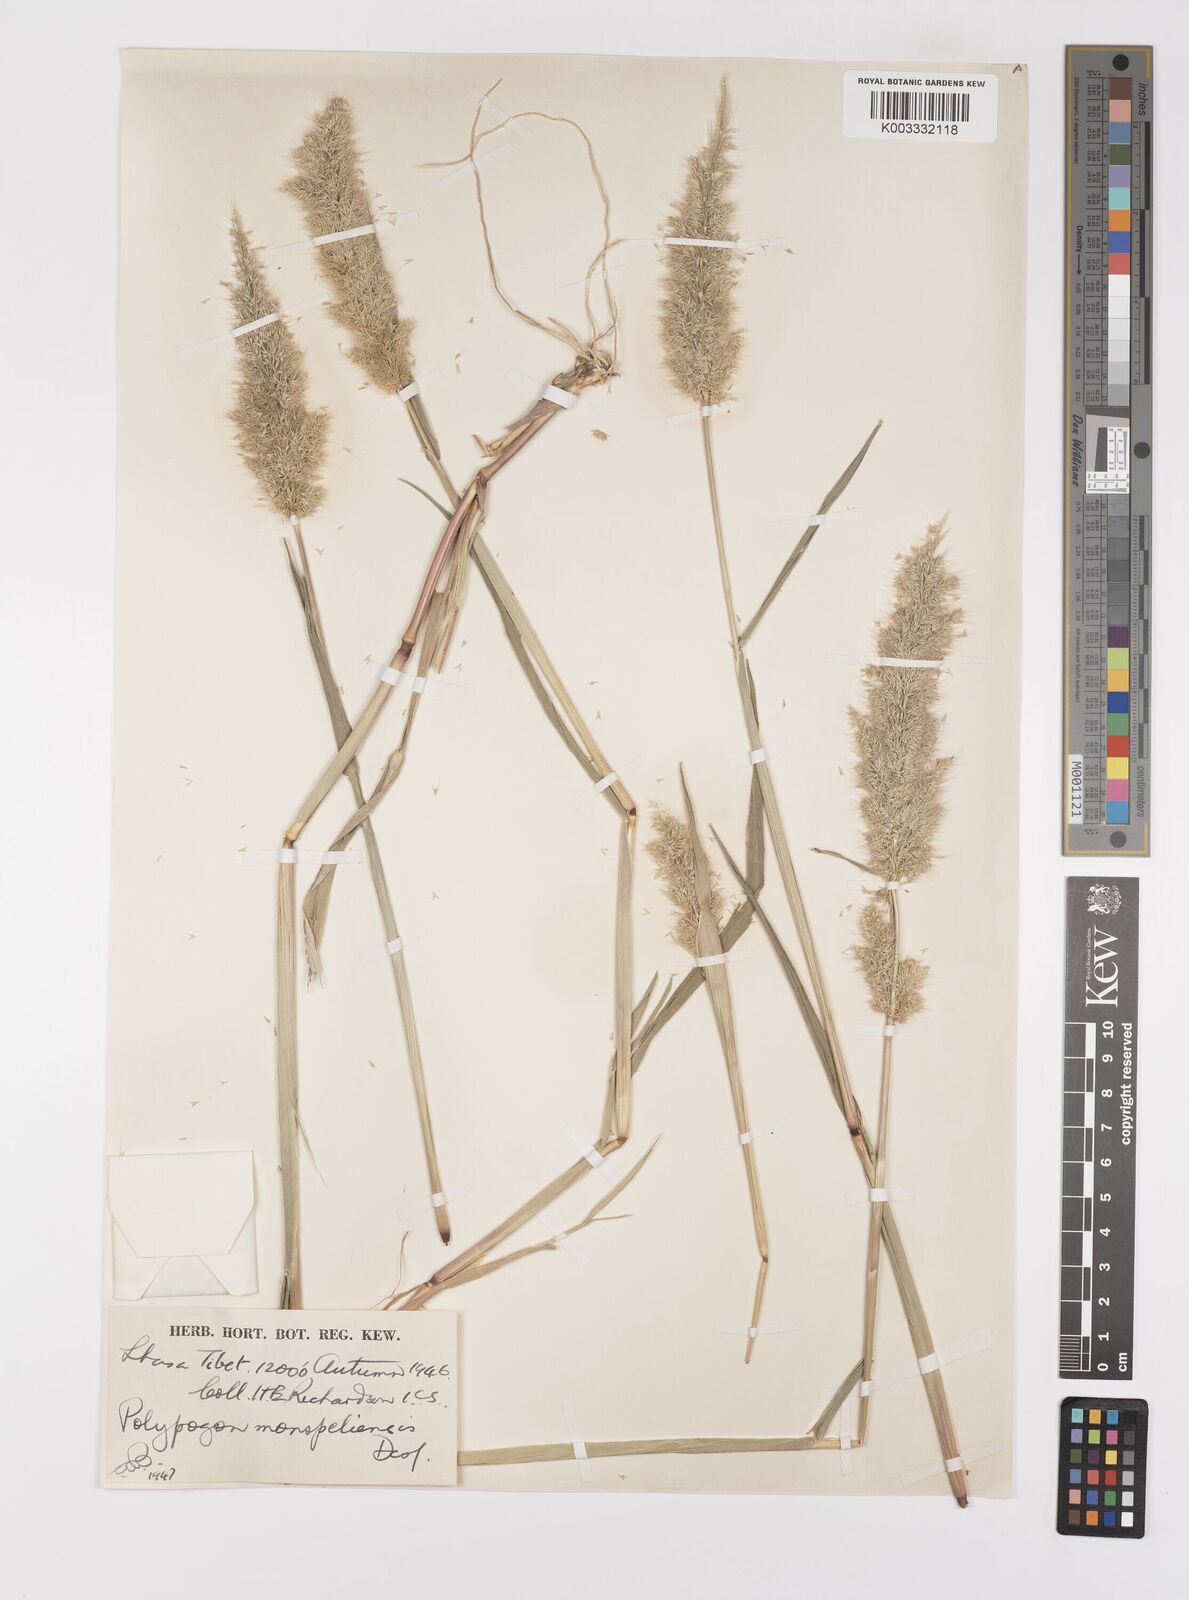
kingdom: Plantae
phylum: Tracheophyta
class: Liliopsida
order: Poales
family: Poaceae
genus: Polypogon
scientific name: Polypogon monspeliensis
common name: Annual rabbitsfoot grass
